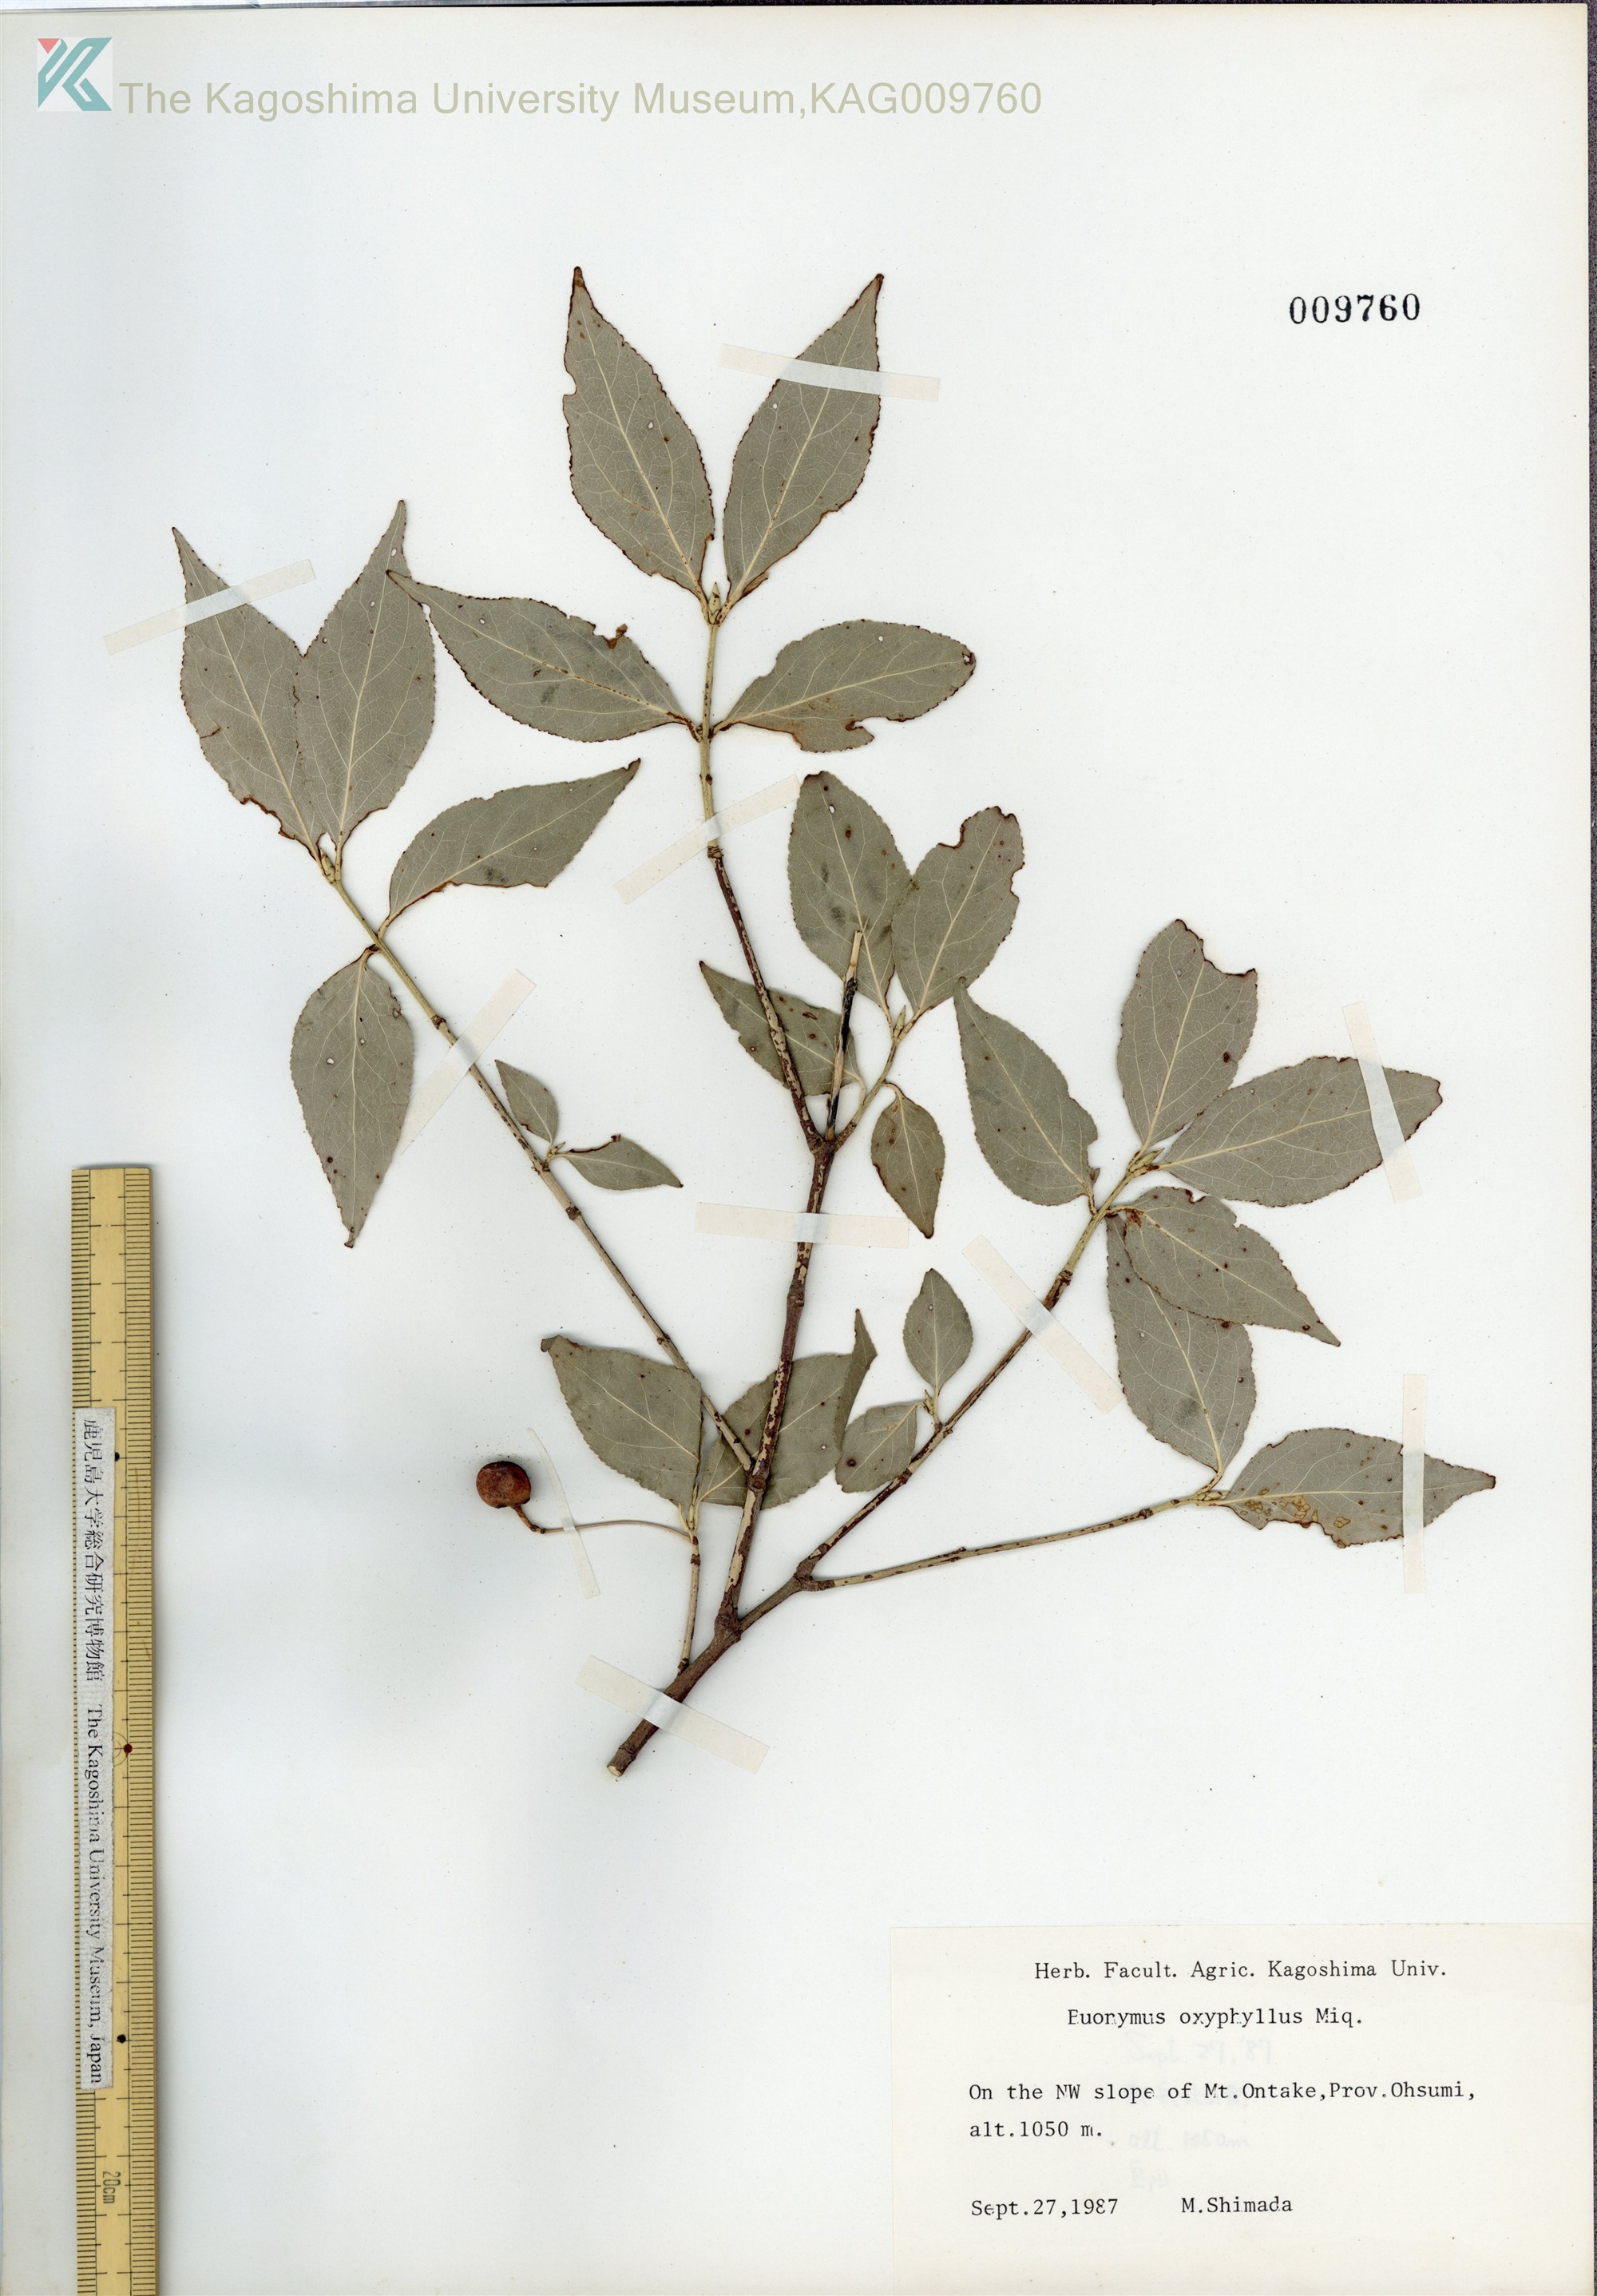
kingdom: Plantae
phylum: Tracheophyta
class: Magnoliopsida
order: Celastrales
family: Celastraceae
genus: Euonymus
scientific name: Euonymus oxyphyllus
